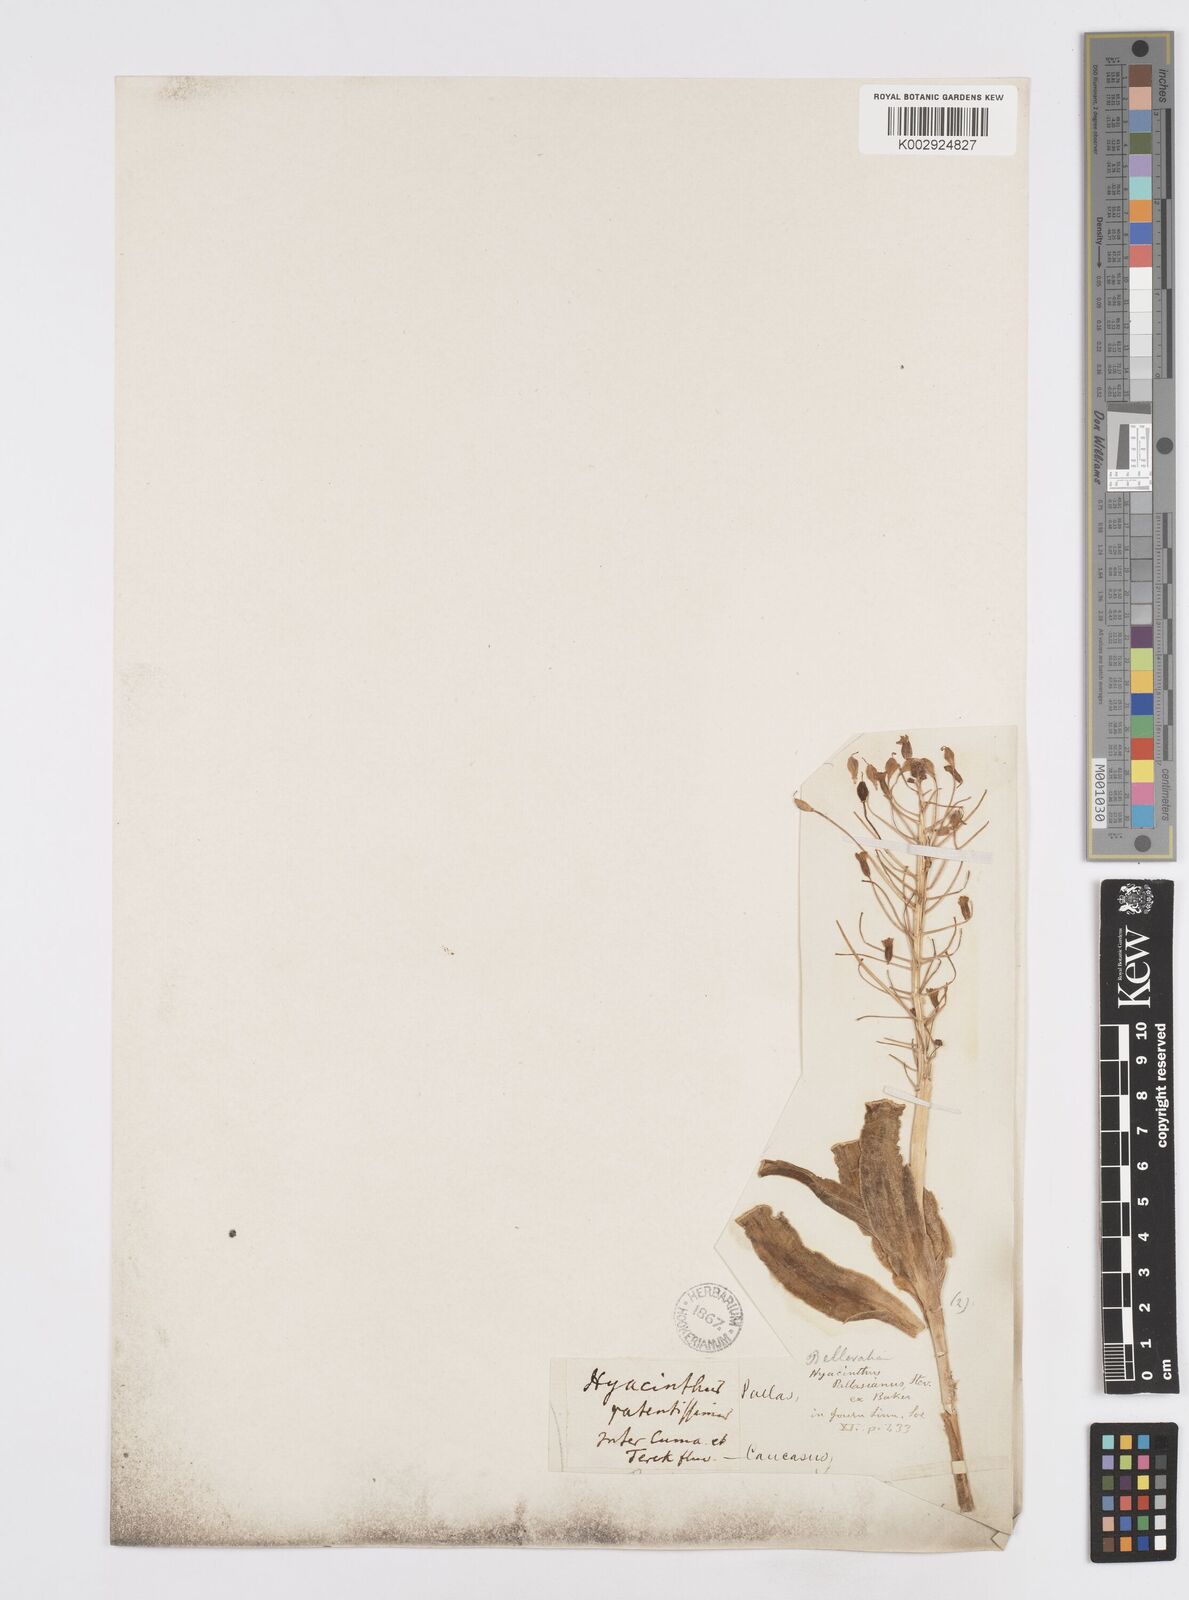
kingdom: Plantae
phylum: Tracheophyta
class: Liliopsida
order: Asparagales
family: Asparagaceae
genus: Bellevalia
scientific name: Bellevalia
